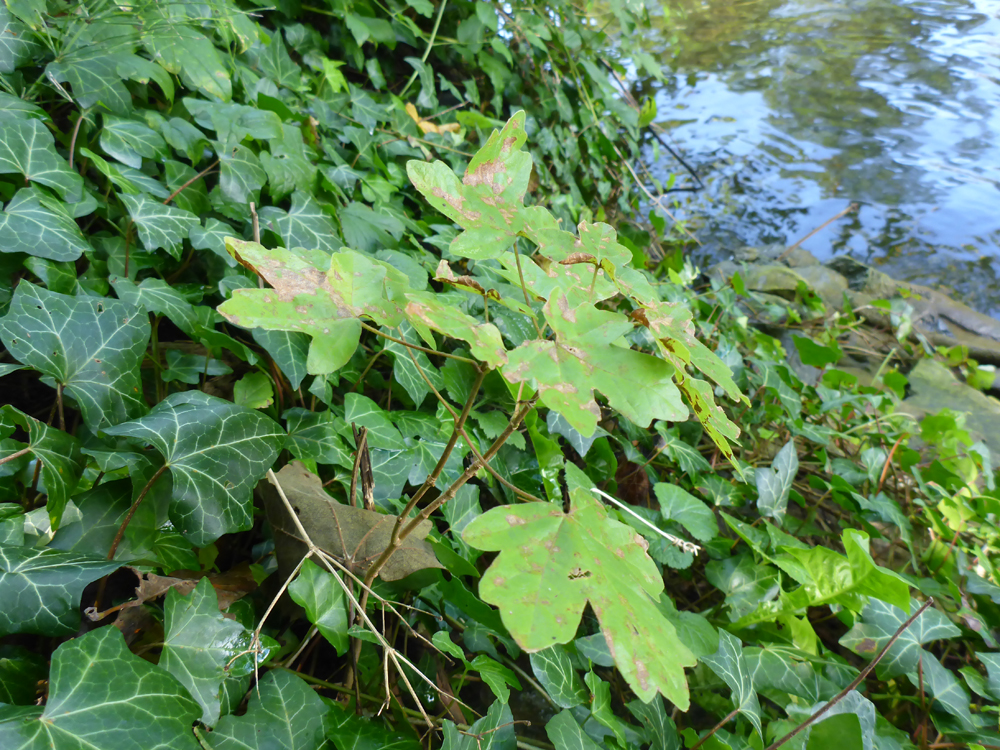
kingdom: Plantae
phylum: Tracheophyta
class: Magnoliopsida
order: Sapindales
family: Sapindaceae
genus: Acer
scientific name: Acer campestre
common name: Field maple
